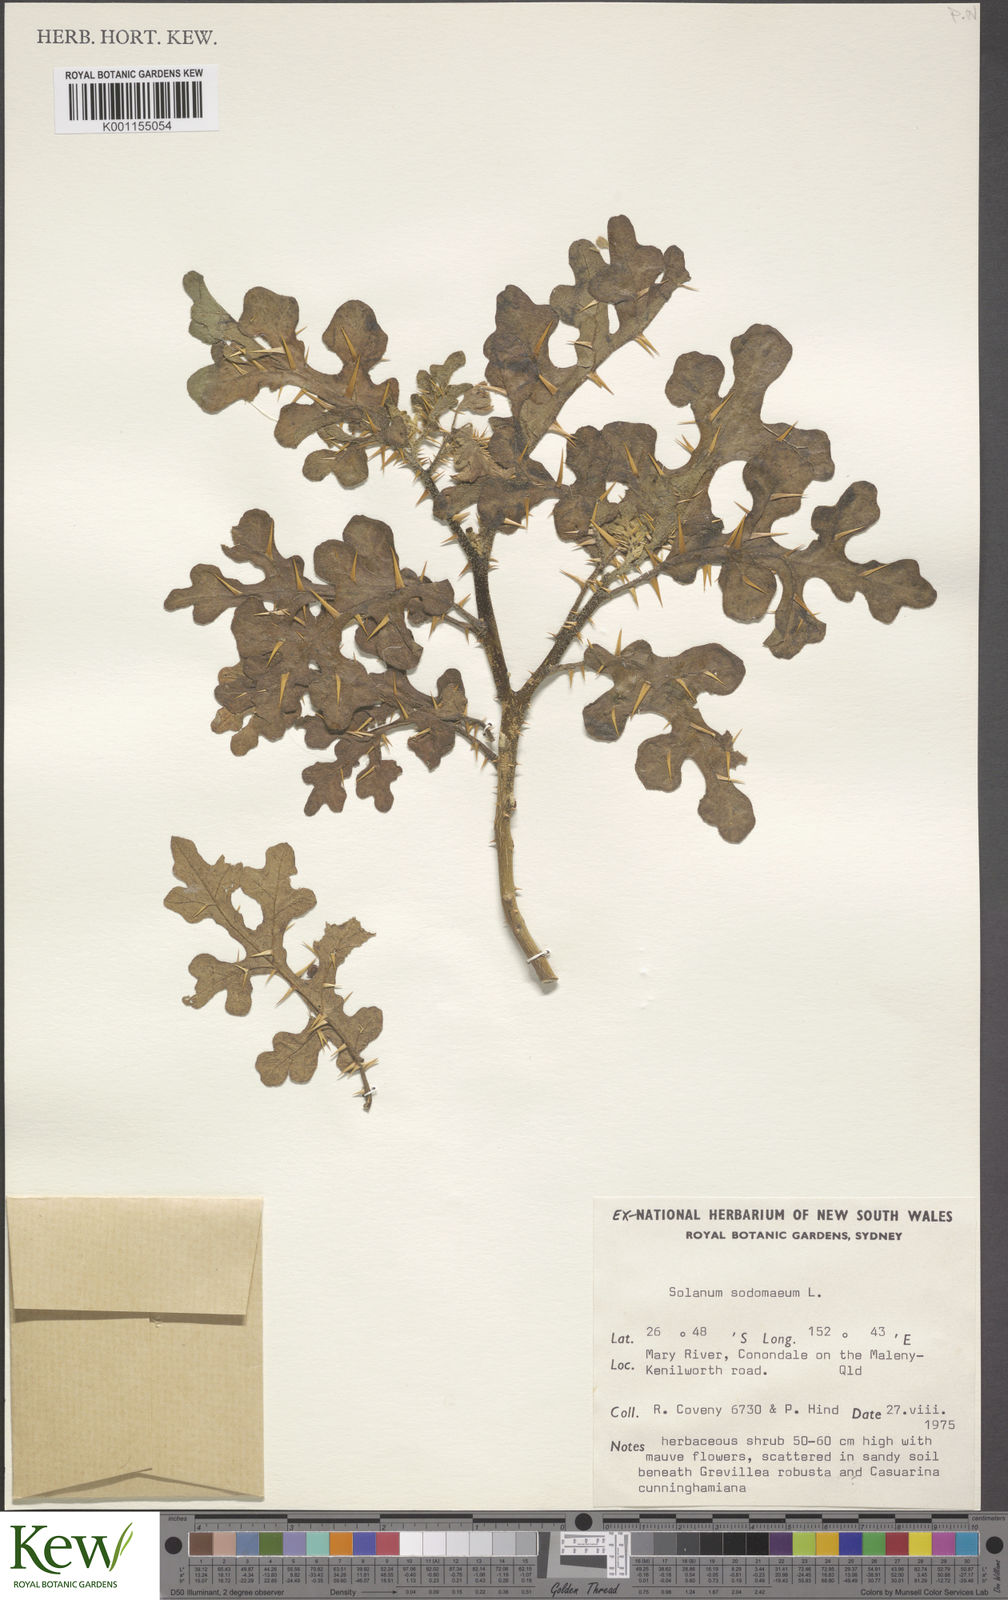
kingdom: Plantae
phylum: Tracheophyta
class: Magnoliopsida
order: Solanales
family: Solanaceae
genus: Solanum
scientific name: Solanum anguivi
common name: Forest bitterberry
